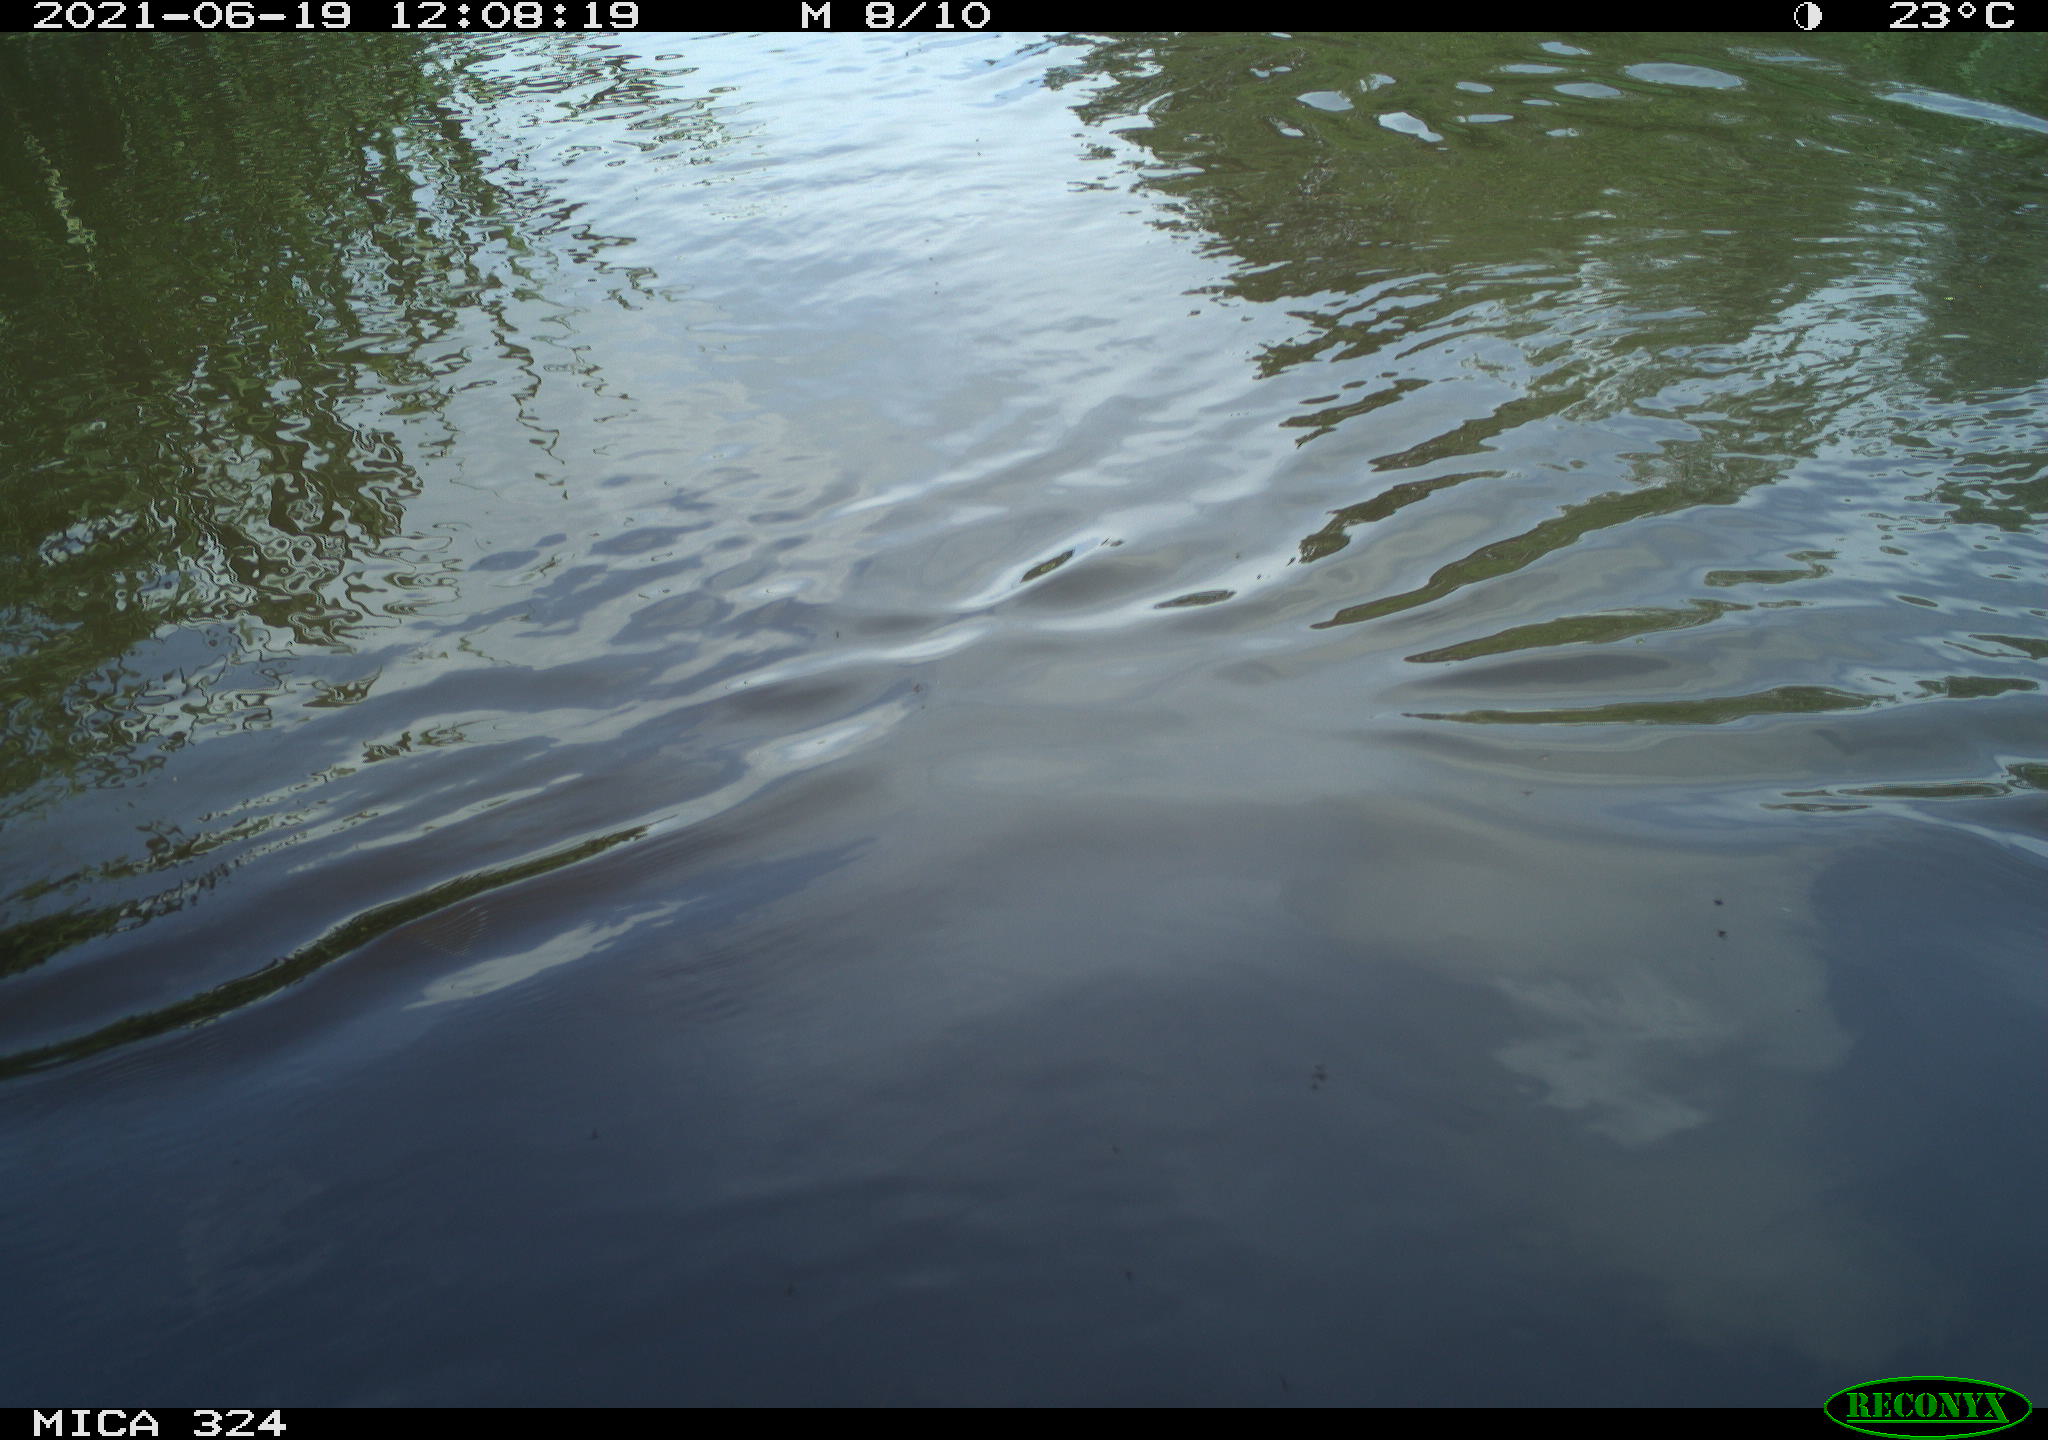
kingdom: Animalia
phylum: Chordata
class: Aves
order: Gruiformes
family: Rallidae
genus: Gallinula
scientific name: Gallinula chloropus
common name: Common moorhen
